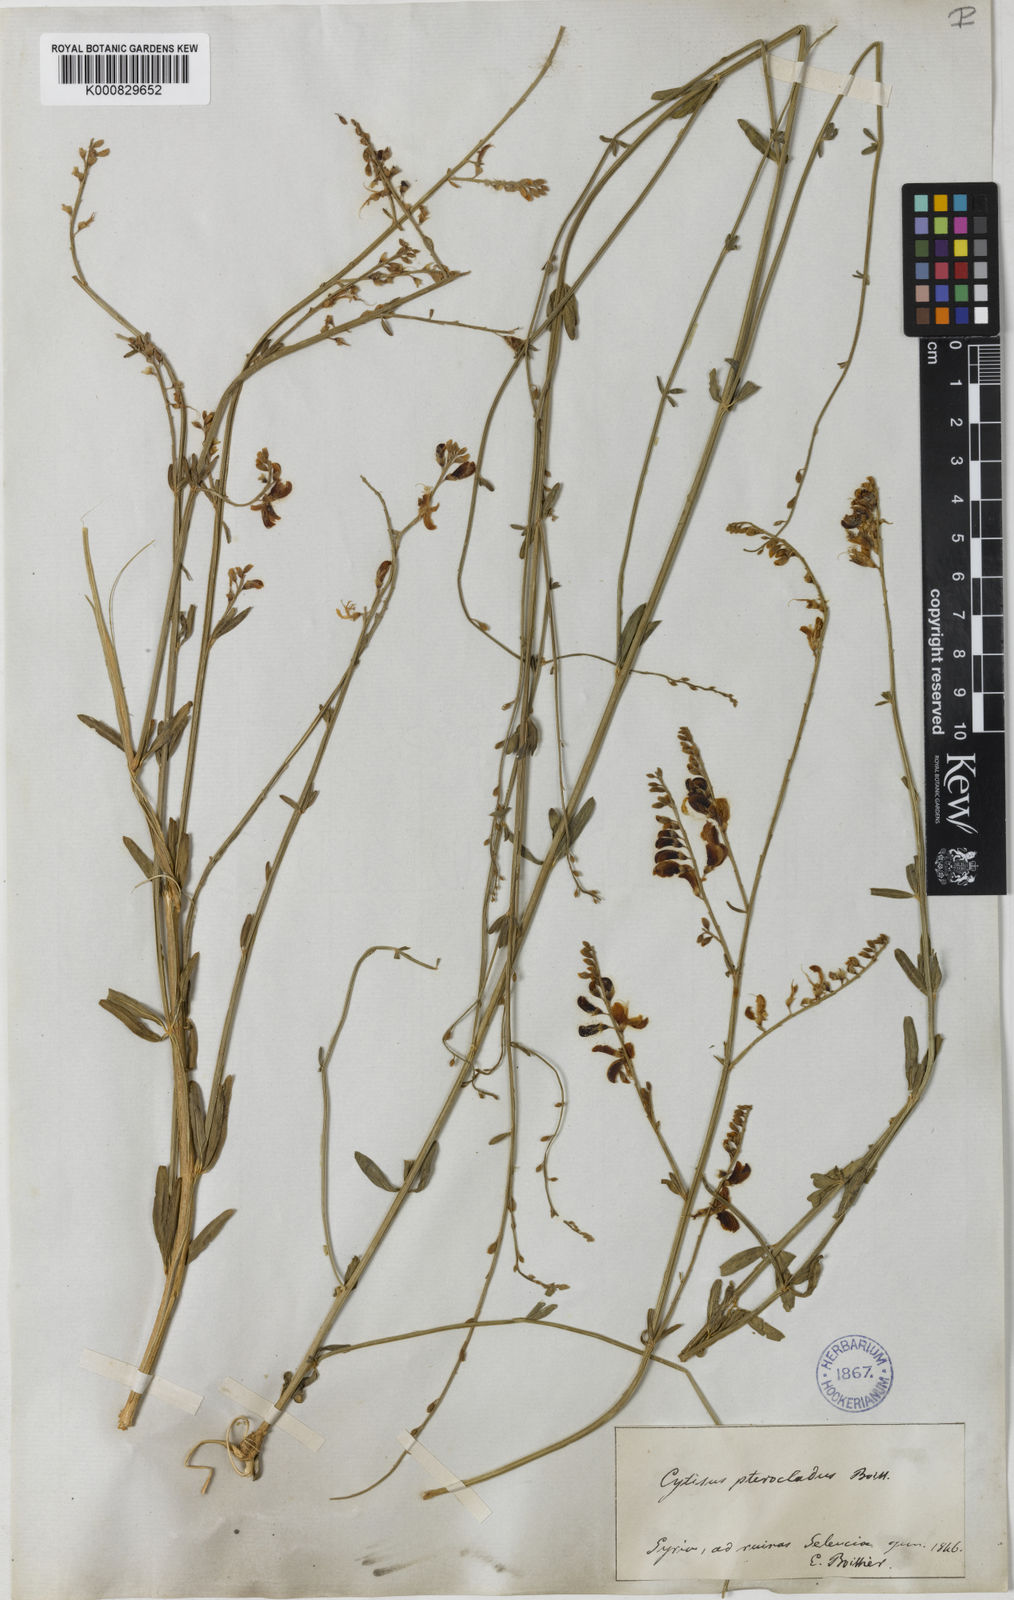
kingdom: Plantae
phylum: Tracheophyta
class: Magnoliopsida
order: Fabales
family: Fabaceae
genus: Genista
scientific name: Genista aucheri
